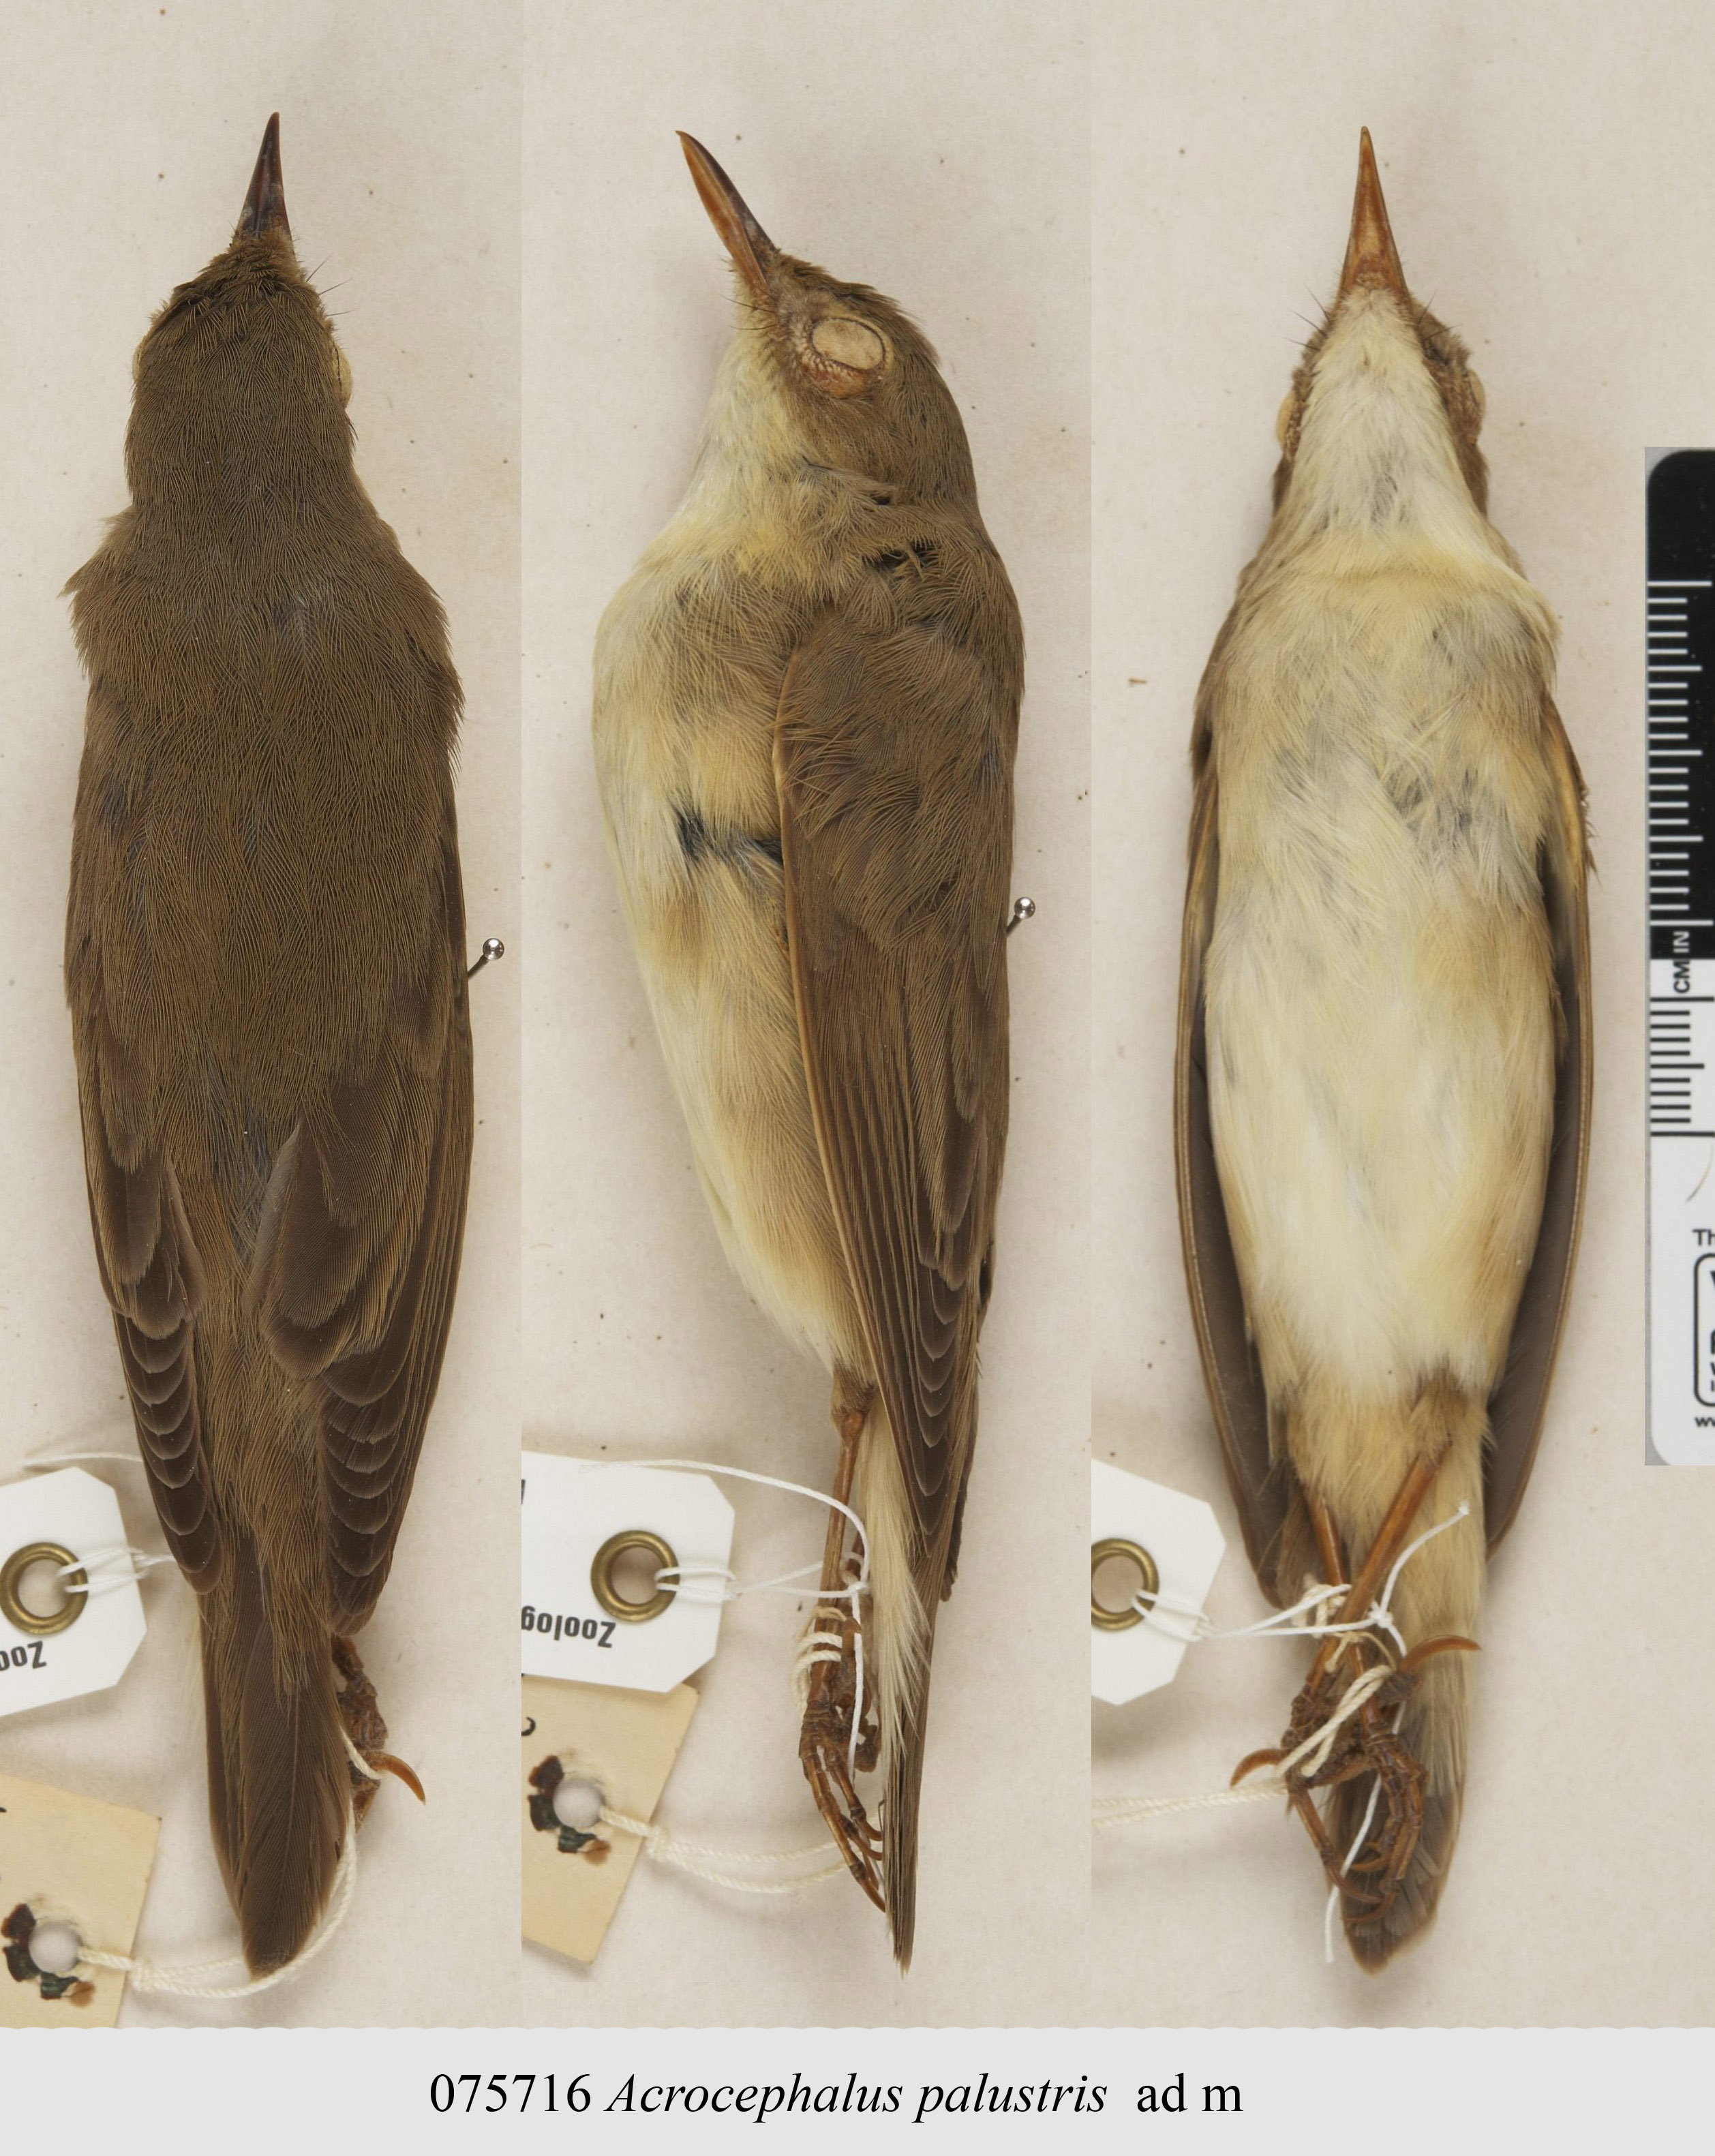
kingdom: Animalia
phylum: Chordata
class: Aves
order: Passeriformes
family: Acrocephalidae
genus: Acrocephalus
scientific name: Acrocephalus palustris
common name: Marsh warbler
